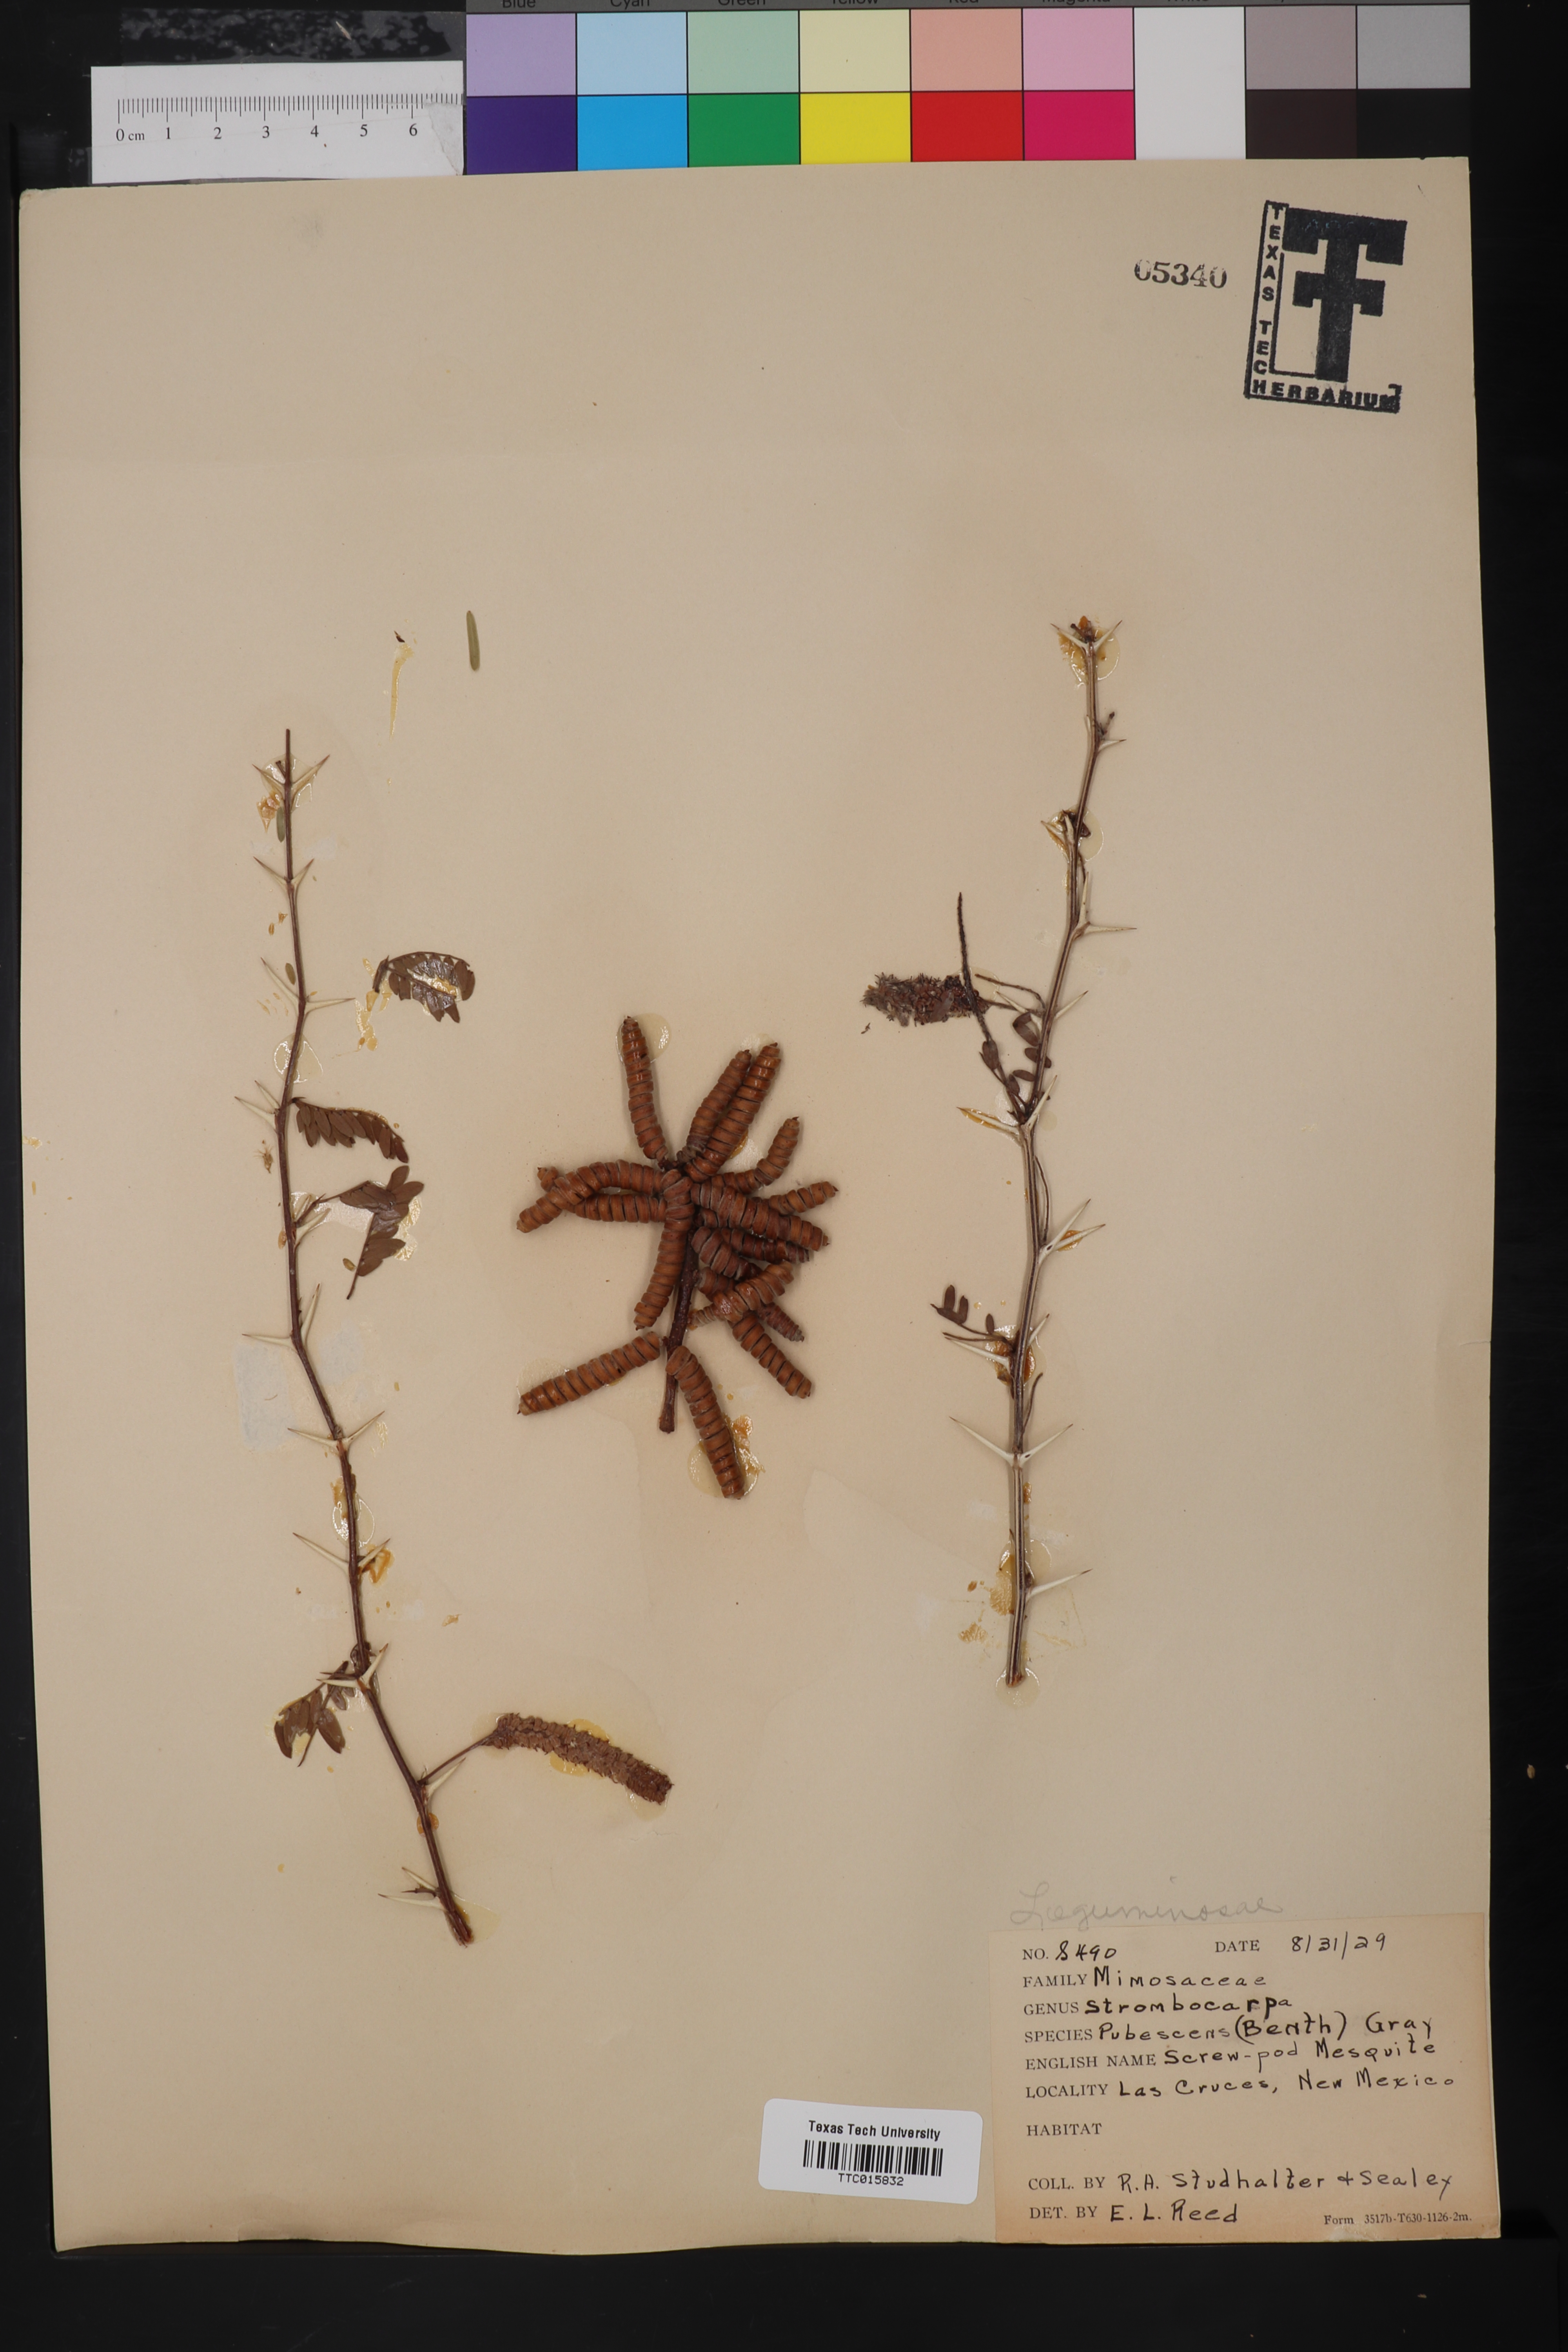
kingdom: Plantae
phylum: Tracheophyta
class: Magnoliopsida
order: Fabales
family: Fabaceae
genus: Prosopis
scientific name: Prosopis pubescens
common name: Screw-bean
